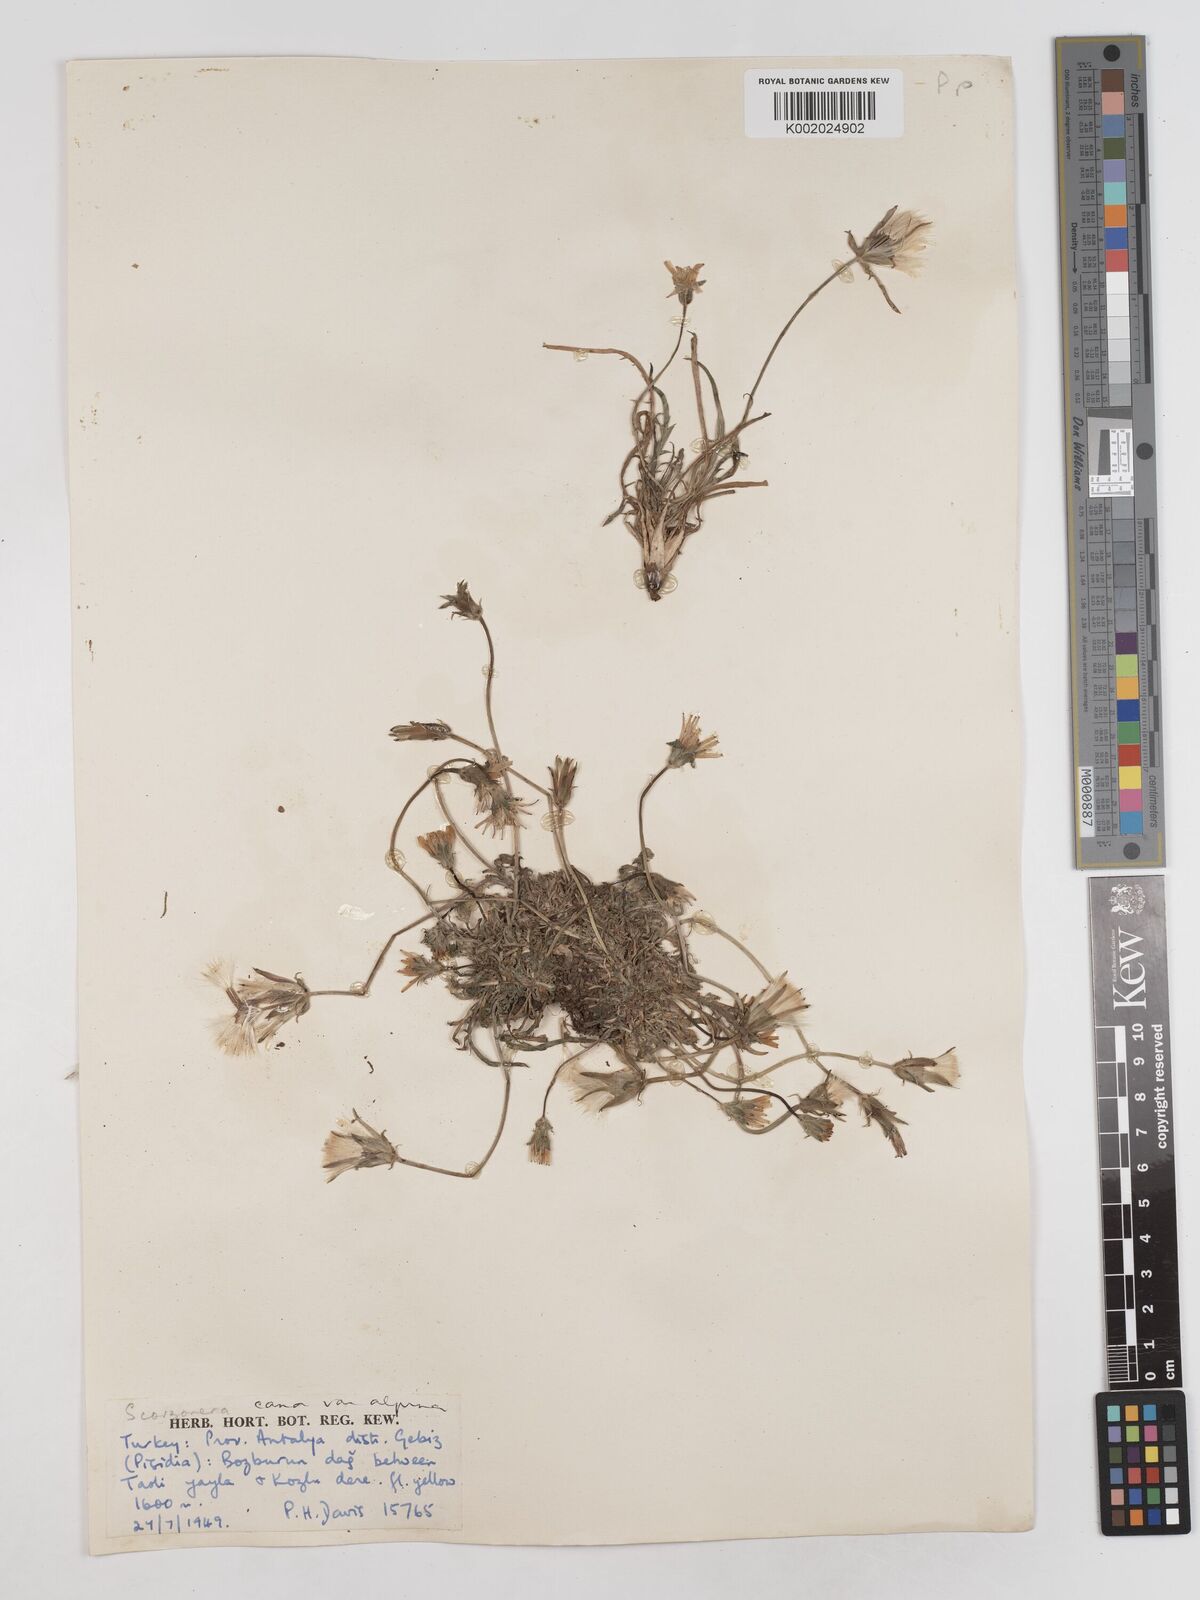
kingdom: Plantae
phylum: Tracheophyta
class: Magnoliopsida
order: Asterales
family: Asteraceae
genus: Scorzonera
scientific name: Scorzonera alpigena
